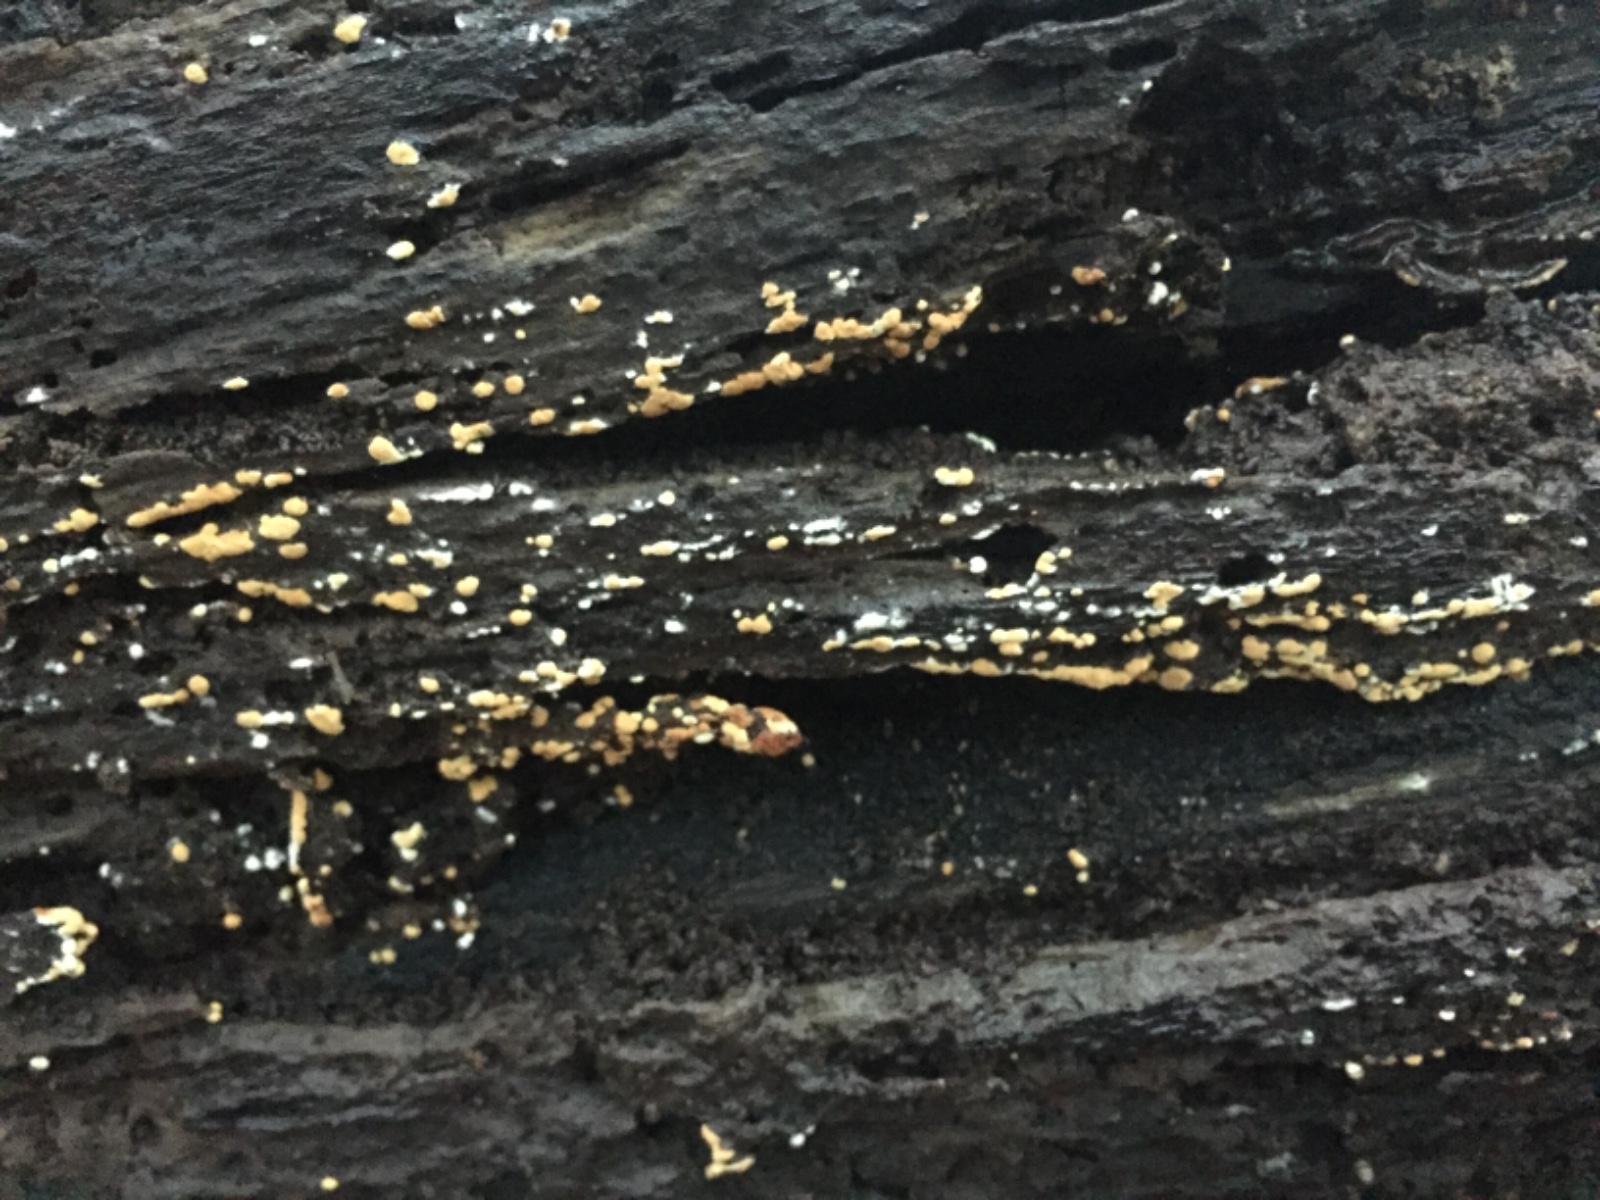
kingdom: Fungi
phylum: Basidiomycota
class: Agaricomycetes
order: Cantharellales
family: Botryobasidiaceae
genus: Botryobasidium
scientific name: Botryobasidium aureum
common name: gylden spindhinde
